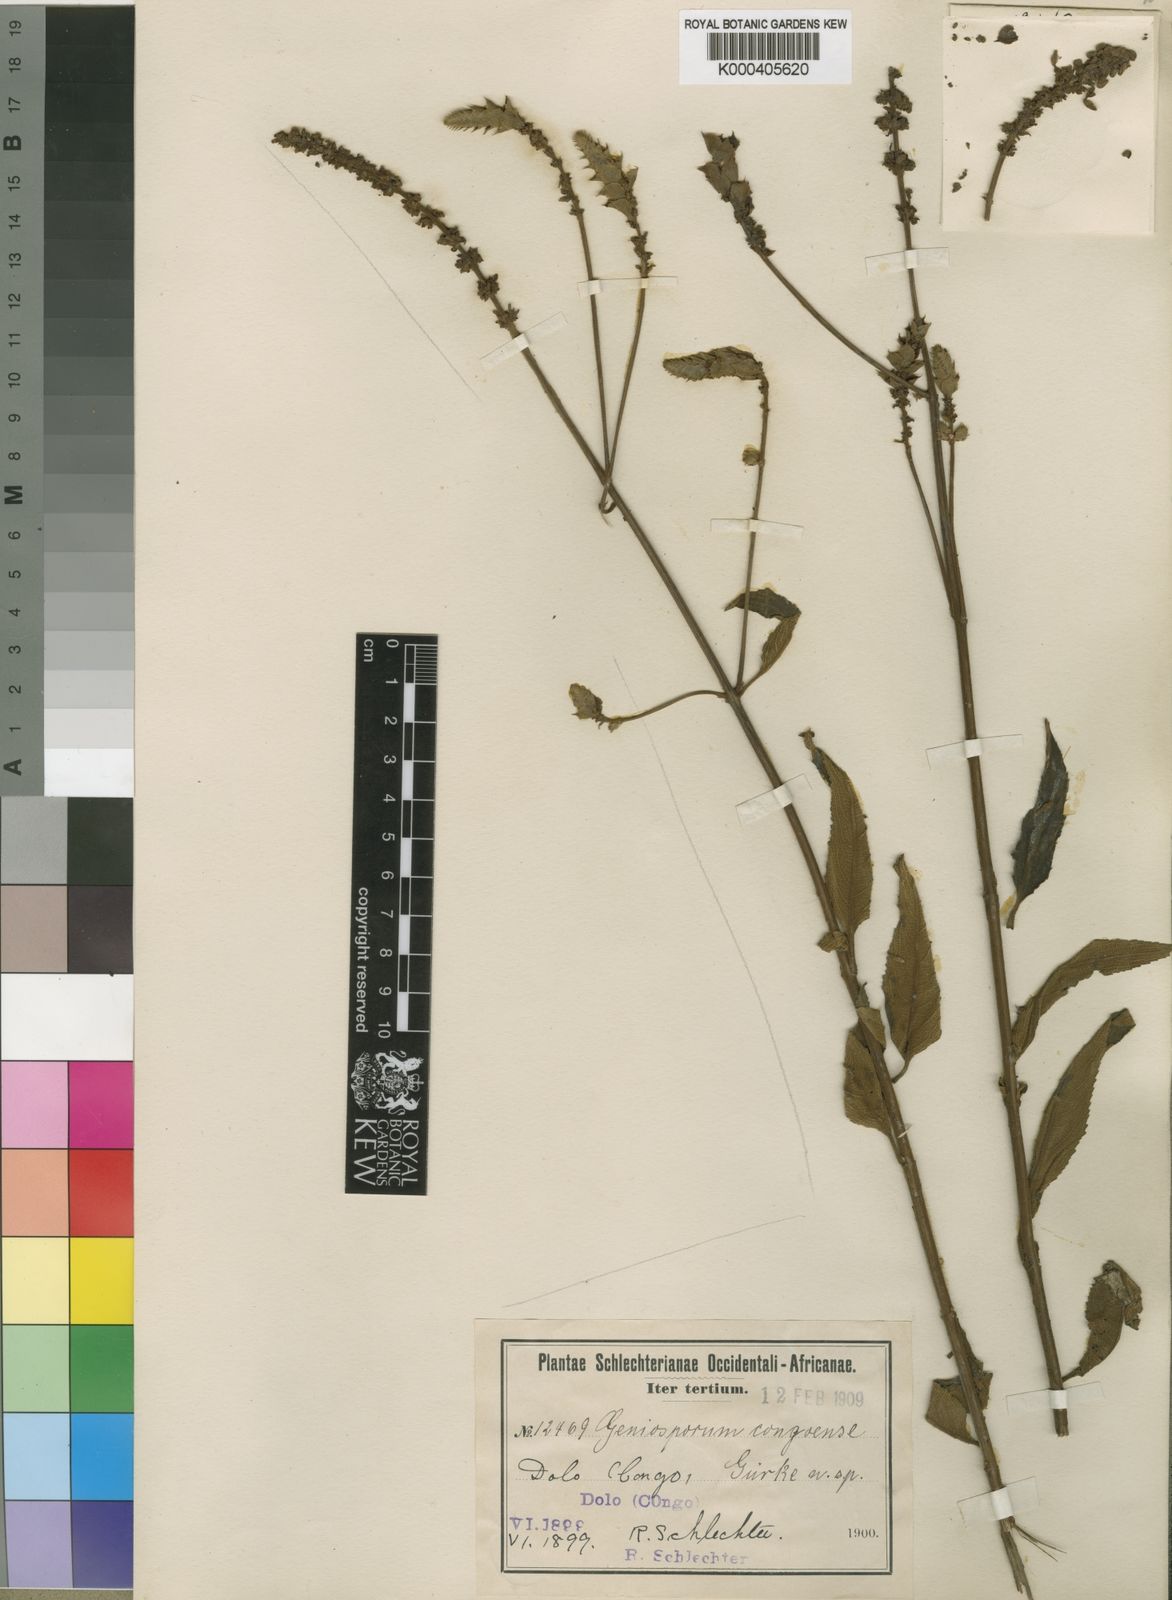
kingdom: Plantae
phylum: Tracheophyta
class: Magnoliopsida
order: Lamiales
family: Lamiaceae
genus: Coleus
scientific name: Coleus engleri
